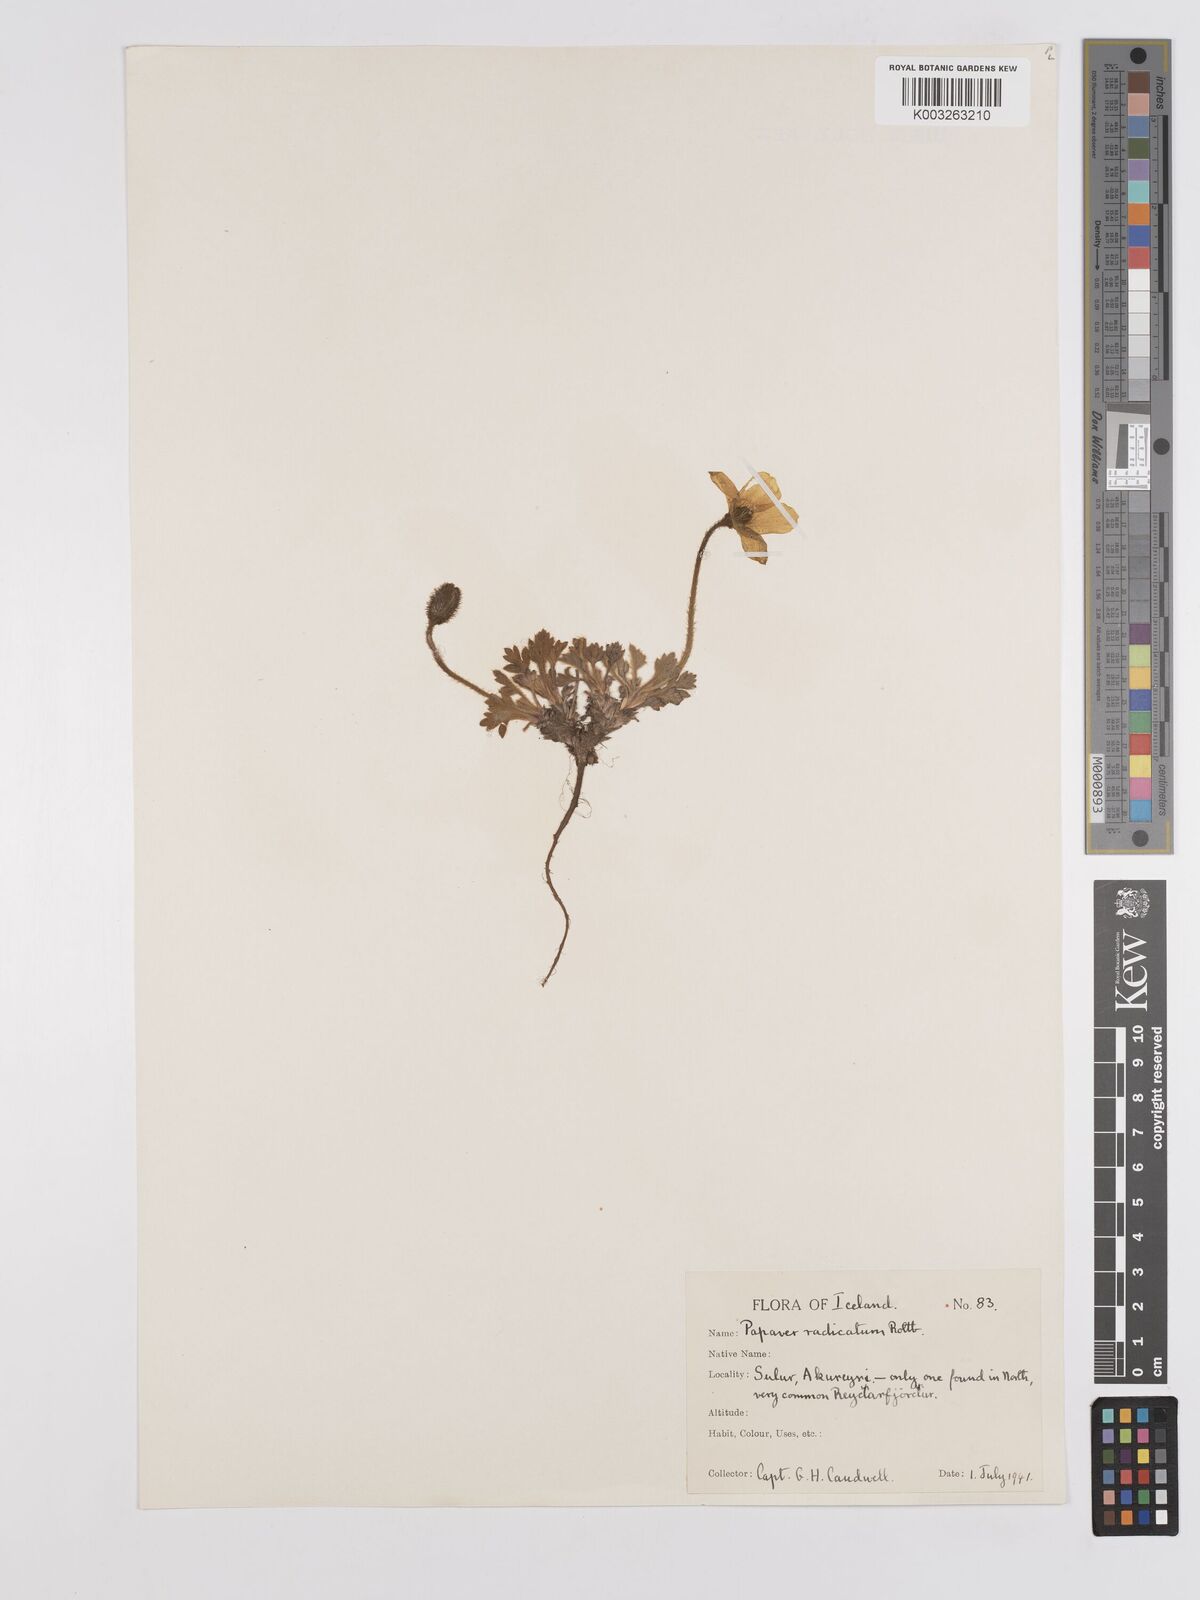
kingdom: Plantae
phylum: Tracheophyta
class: Magnoliopsida
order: Ranunculales
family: Papaveraceae
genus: Papaver
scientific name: Papaver radicatum
